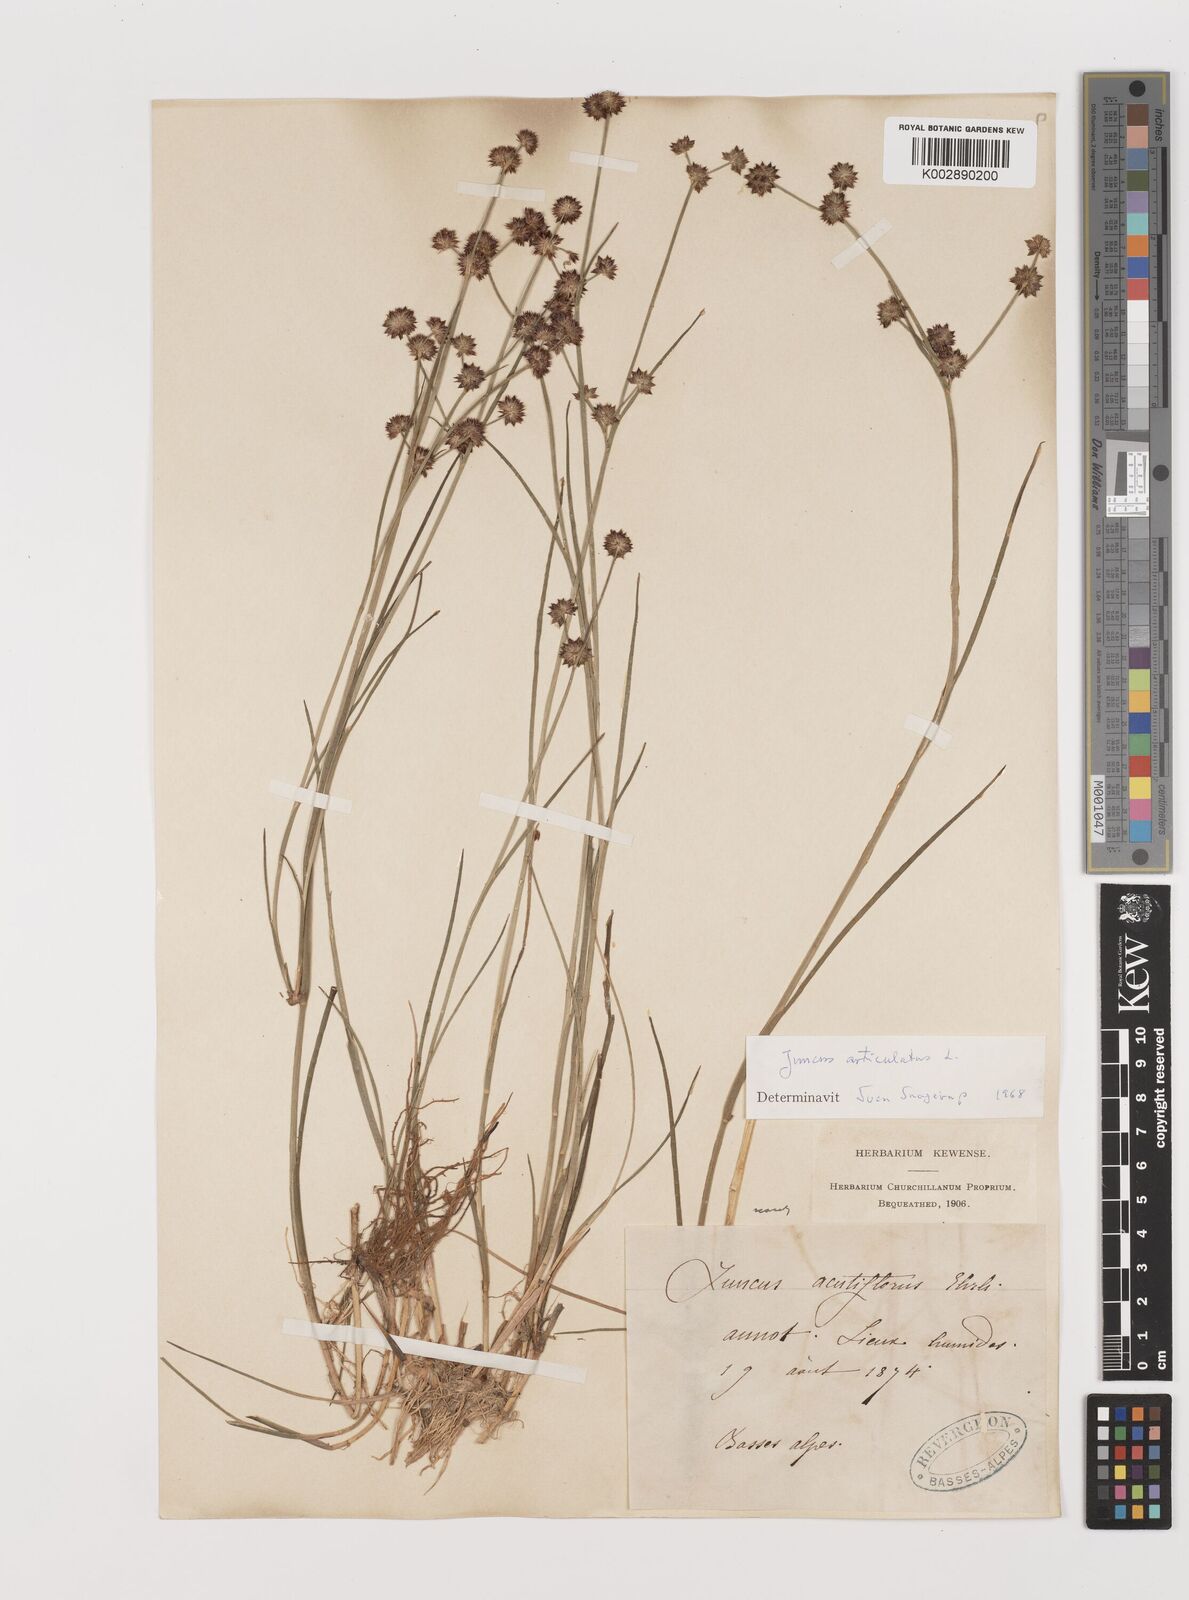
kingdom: Plantae
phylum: Tracheophyta
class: Liliopsida
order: Poales
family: Juncaceae
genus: Juncus
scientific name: Juncus articulatus
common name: Jointed rush
